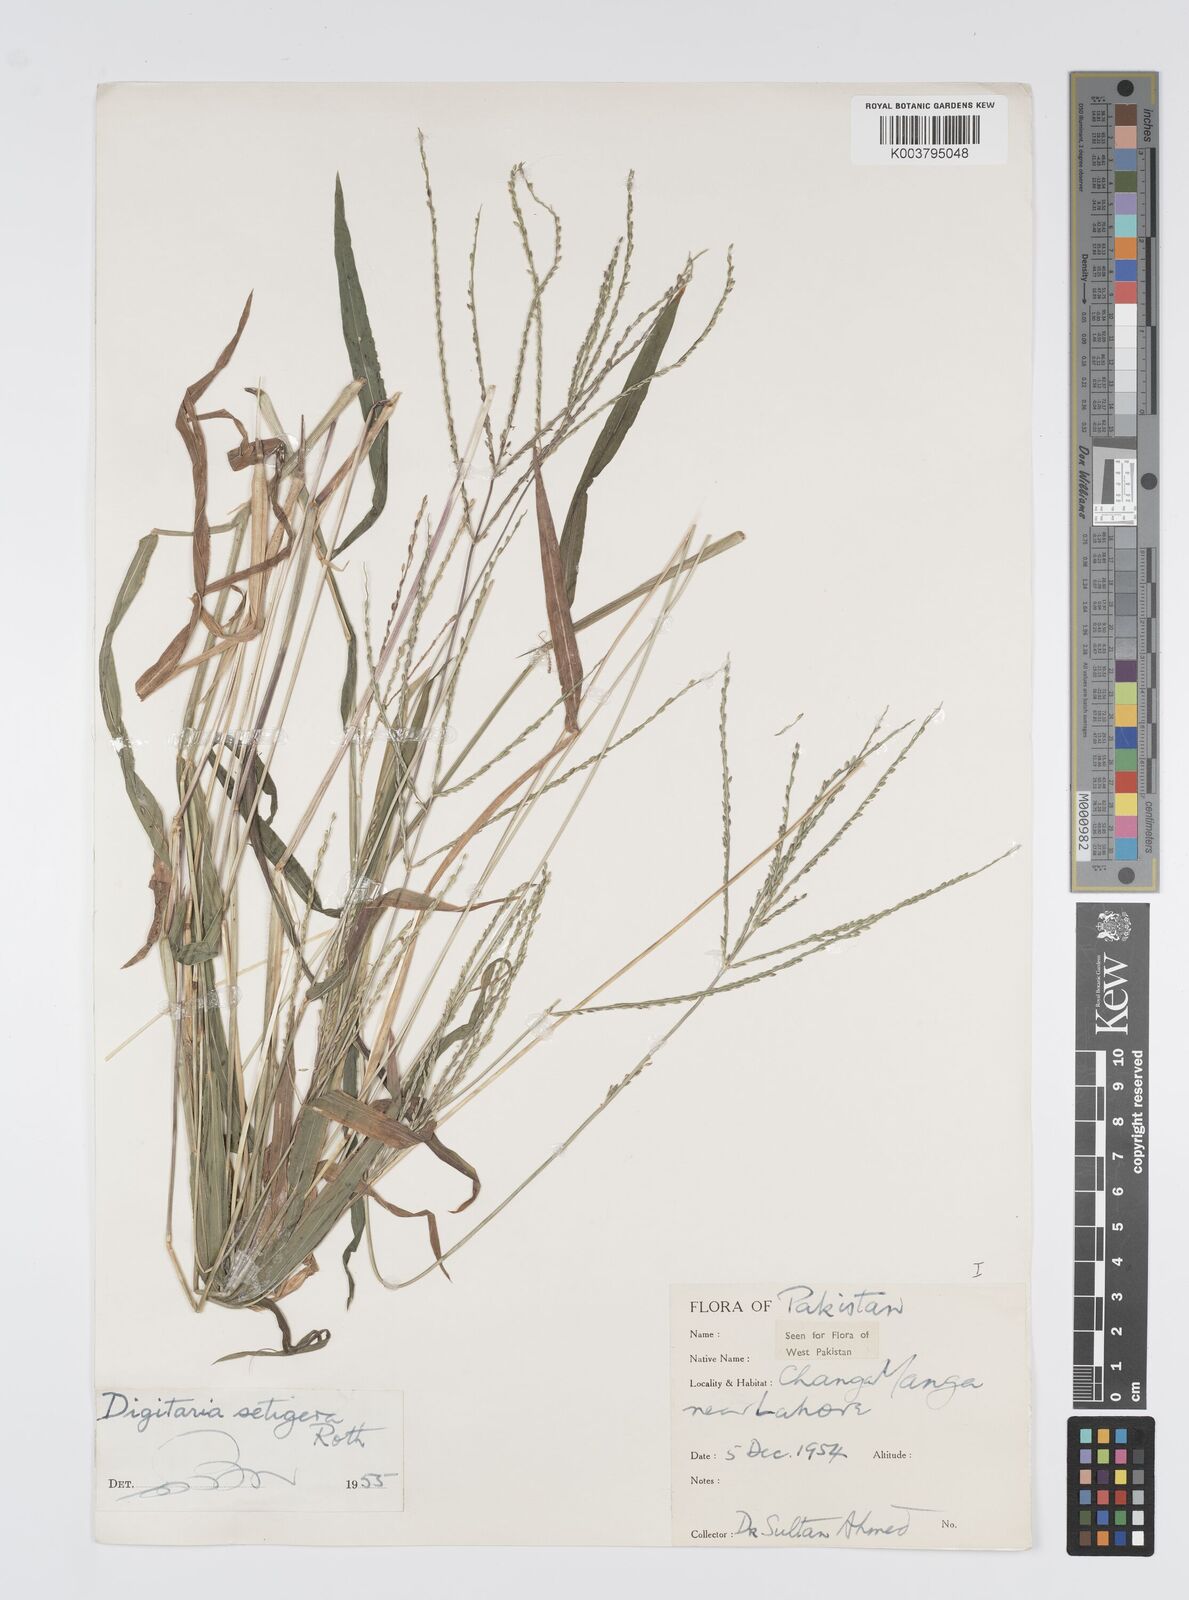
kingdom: Plantae
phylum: Tracheophyta
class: Liliopsida
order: Poales
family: Poaceae
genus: Digitaria
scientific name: Digitaria setigera
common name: East indian crabgrass
